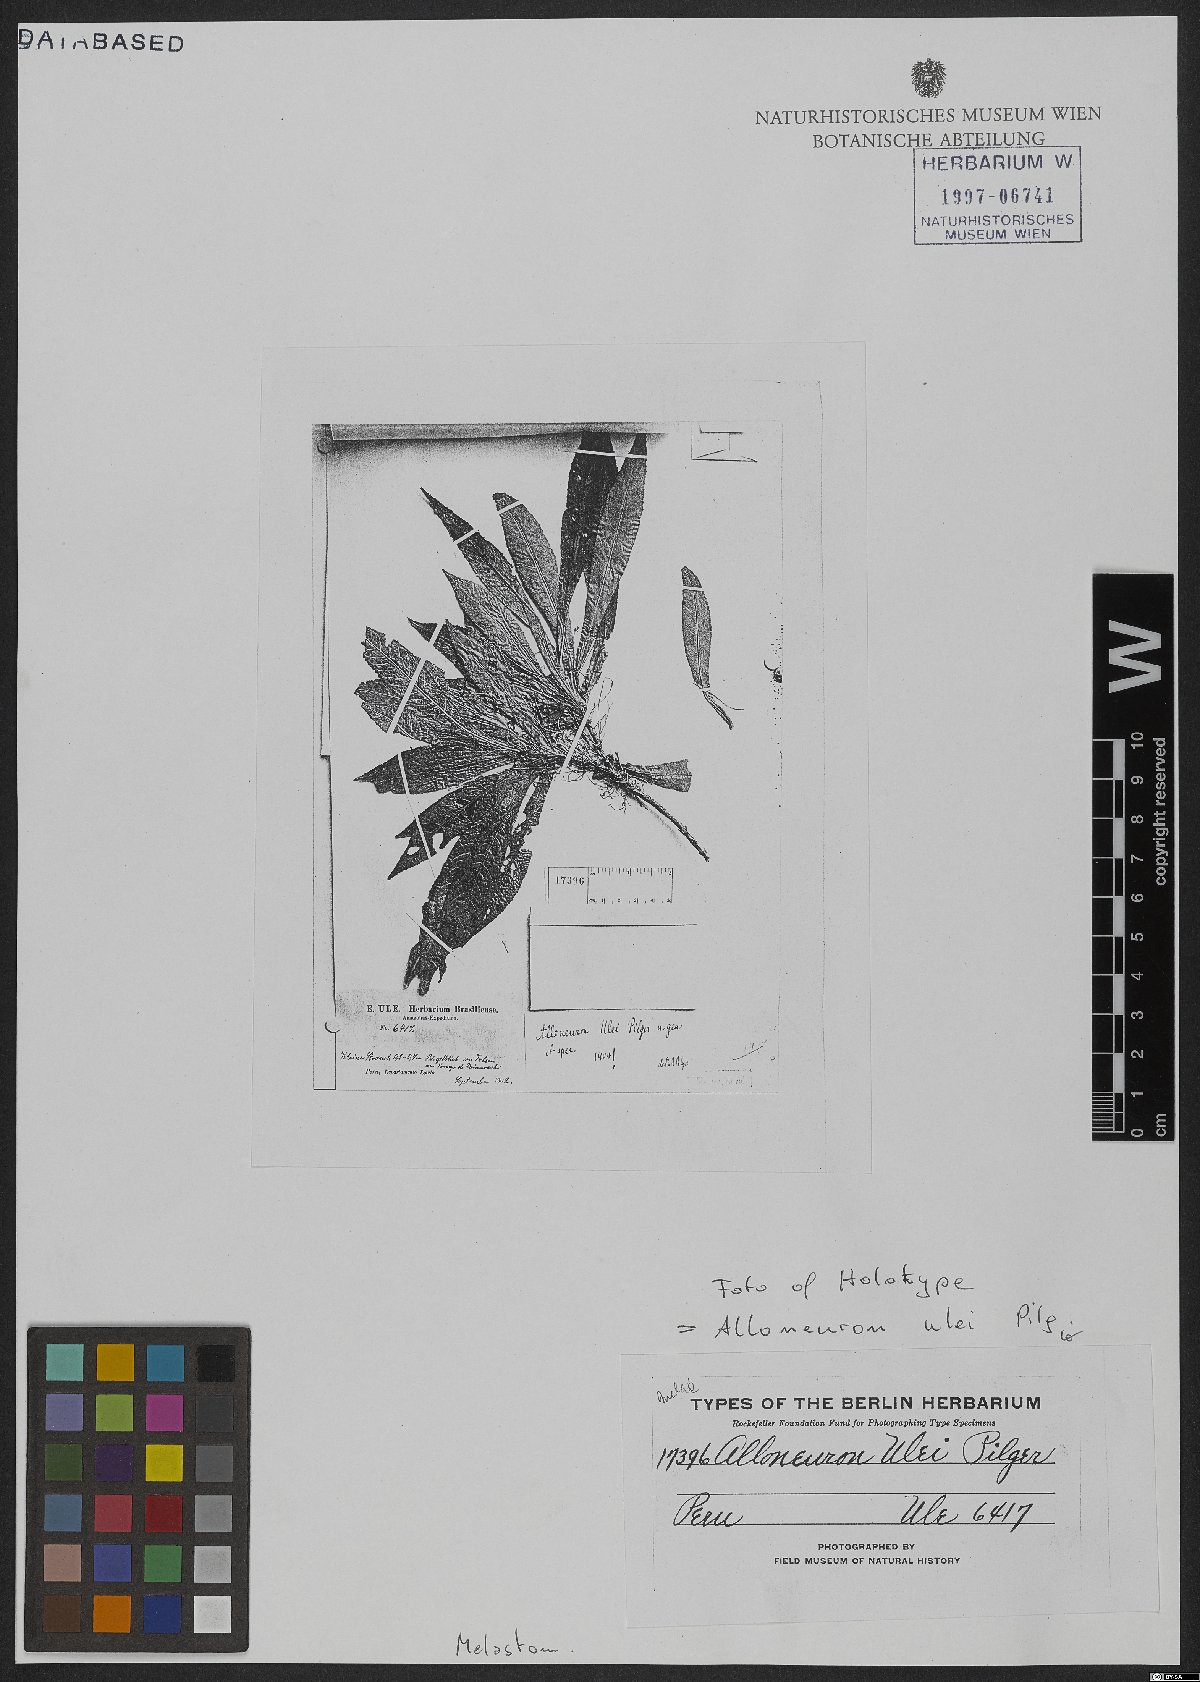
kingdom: Plantae
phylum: Tracheophyta
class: Magnoliopsida
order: Myrtales
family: Melastomataceae
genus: Alloneuron
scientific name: Alloneuron ulei
